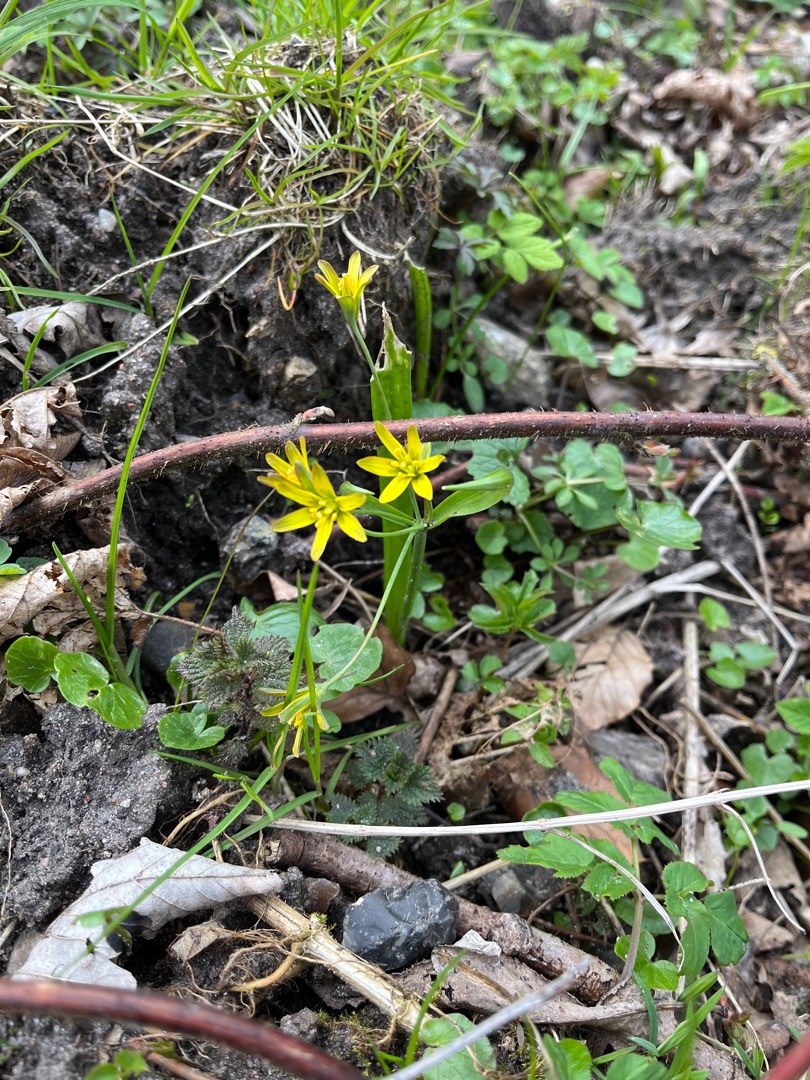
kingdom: Plantae
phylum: Tracheophyta
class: Liliopsida
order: Liliales
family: Liliaceae
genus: Gagea
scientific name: Gagea lutea
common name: Almindelig guldstjerne
